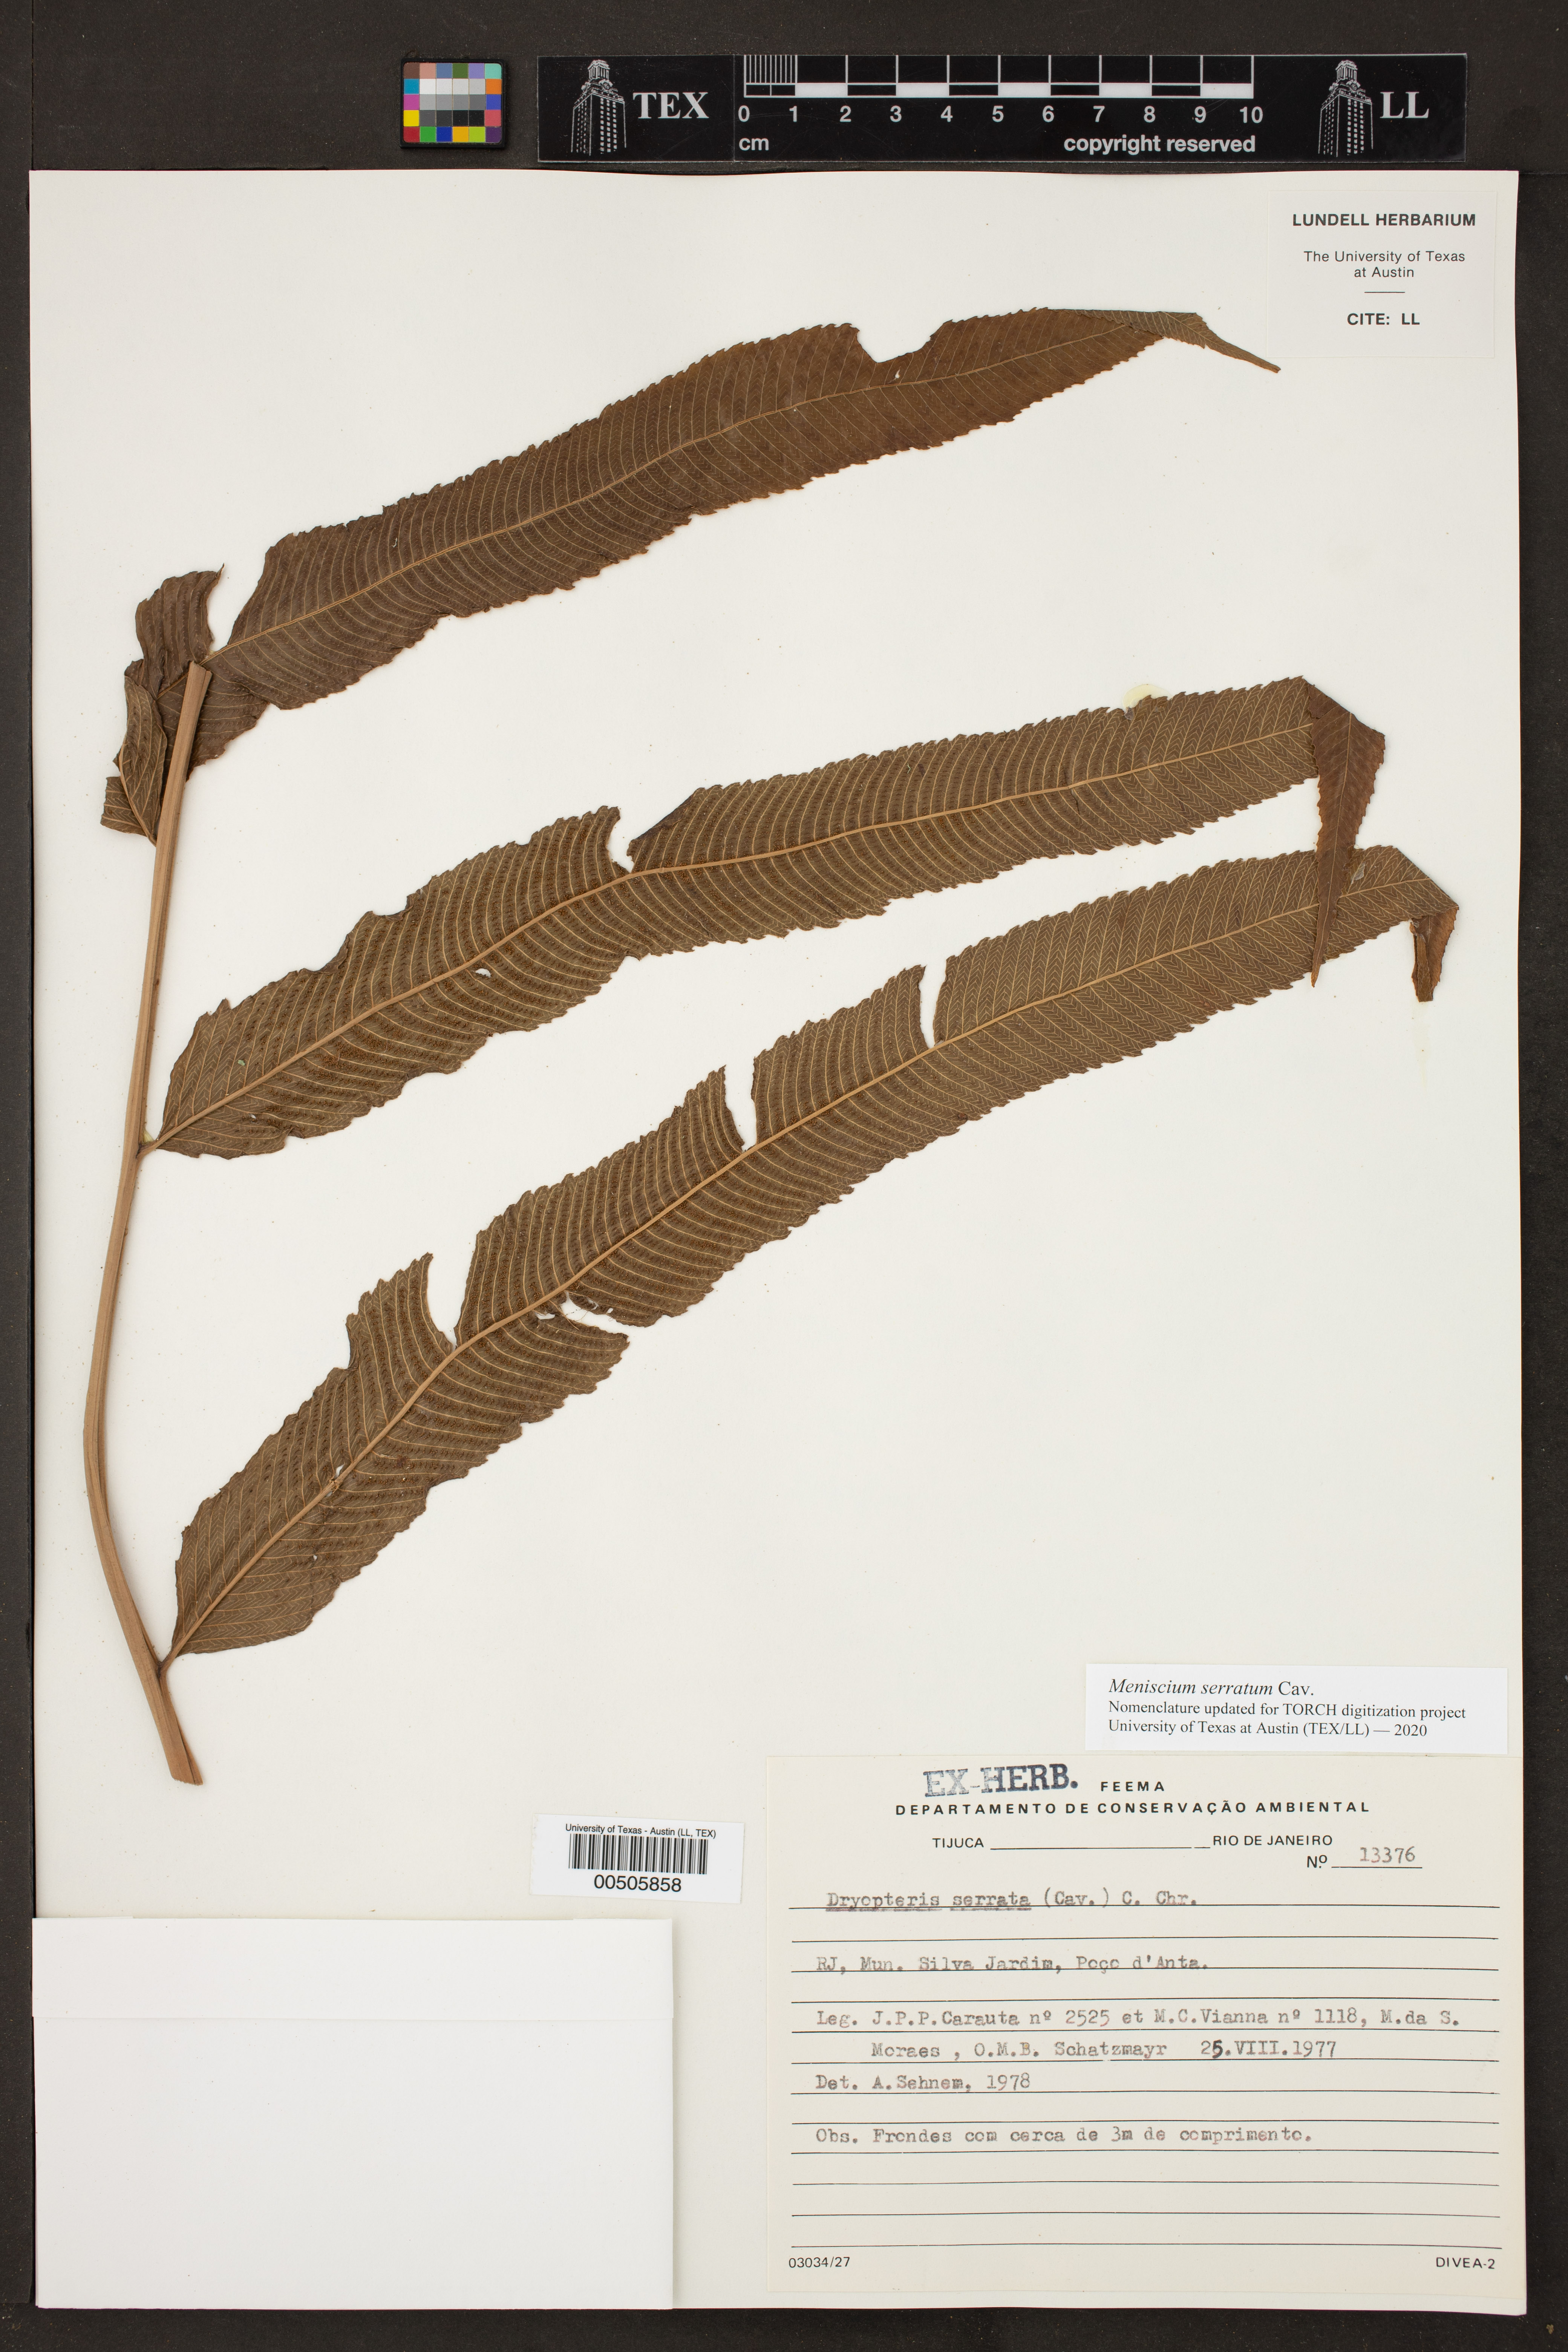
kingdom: Plantae
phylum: Tracheophyta
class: Polypodiopsida
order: Polypodiales
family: Thelypteridaceae
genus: Meniscium
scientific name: Meniscium serratum
